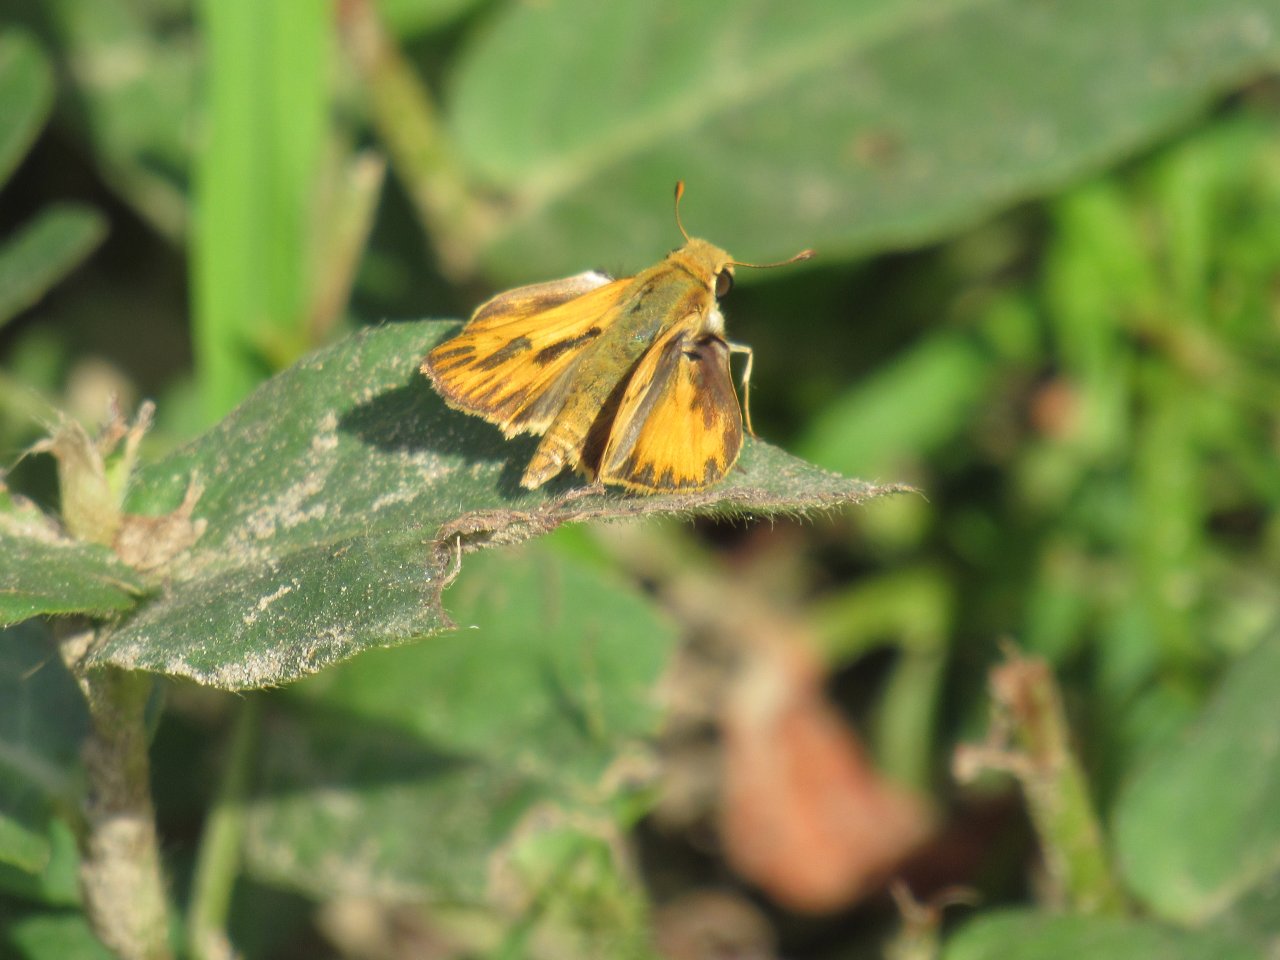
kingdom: Animalia
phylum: Arthropoda
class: Insecta
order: Lepidoptera
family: Hesperiidae
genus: Hylephila
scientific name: Hylephila phyleus
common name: Fiery Skipper
